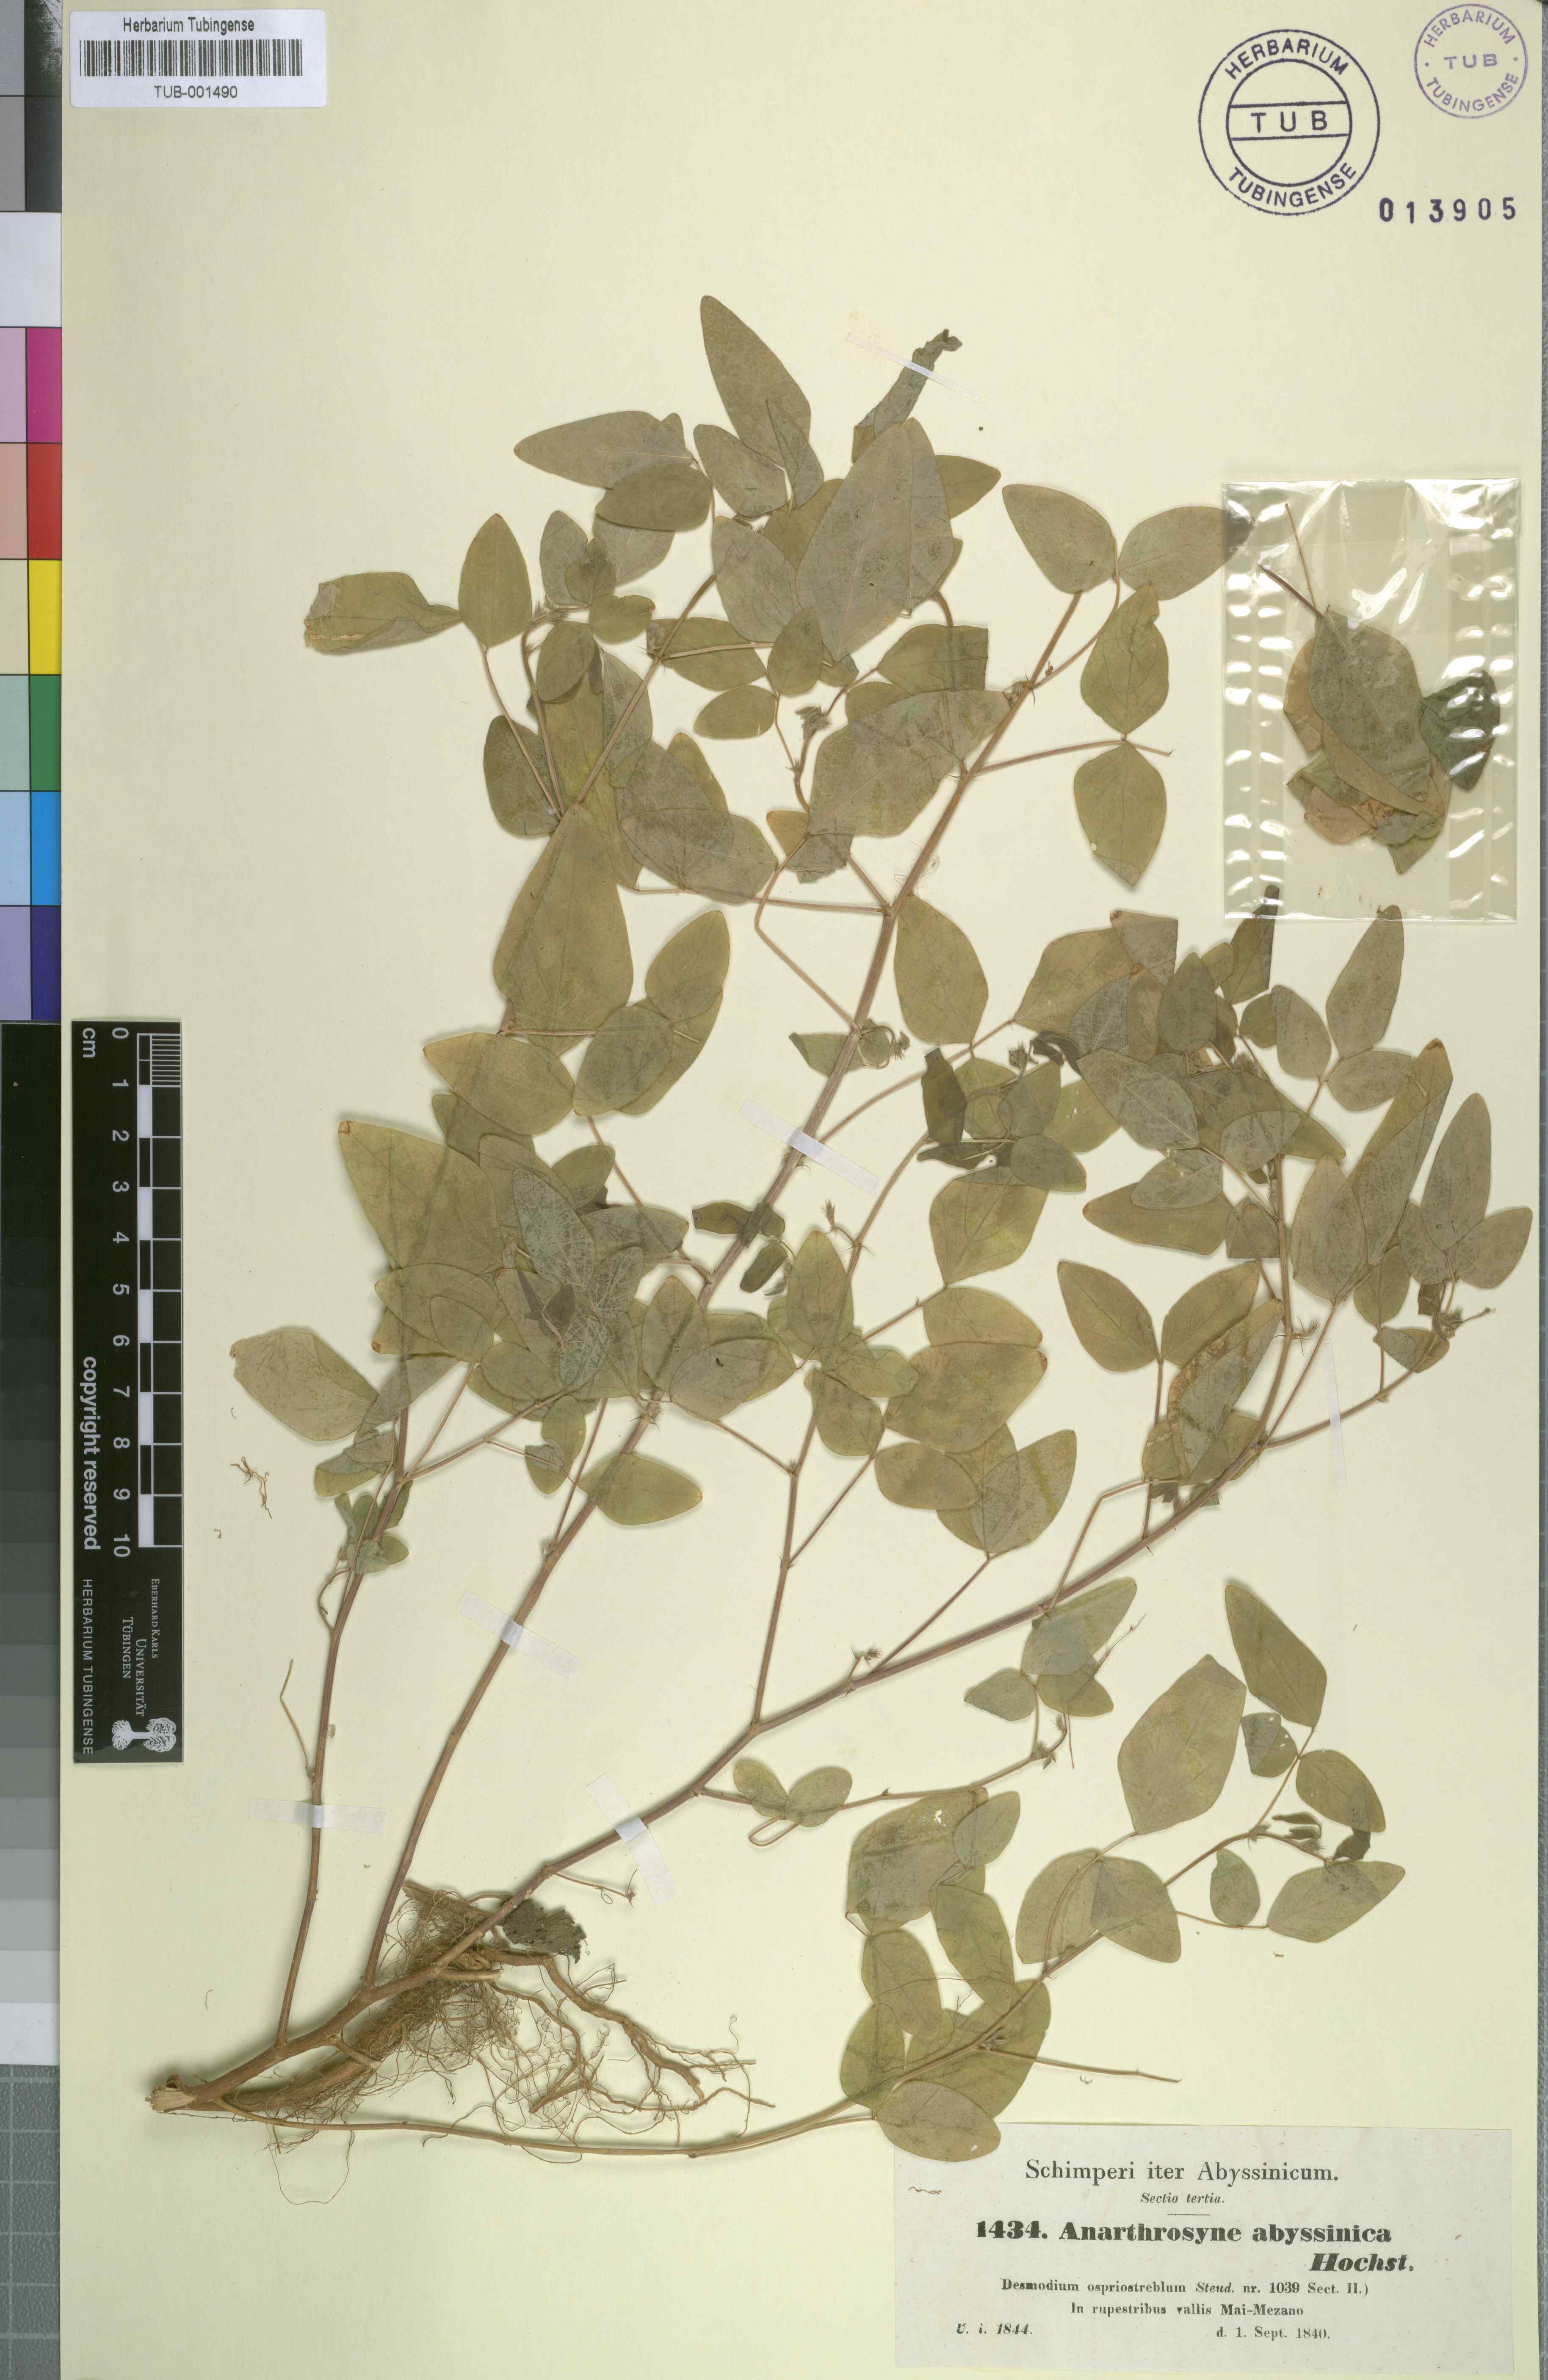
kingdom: Plantae
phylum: Tracheophyta
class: Magnoliopsida
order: Fabales
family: Fabaceae
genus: Desmodium
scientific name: Desmodium procumbens
